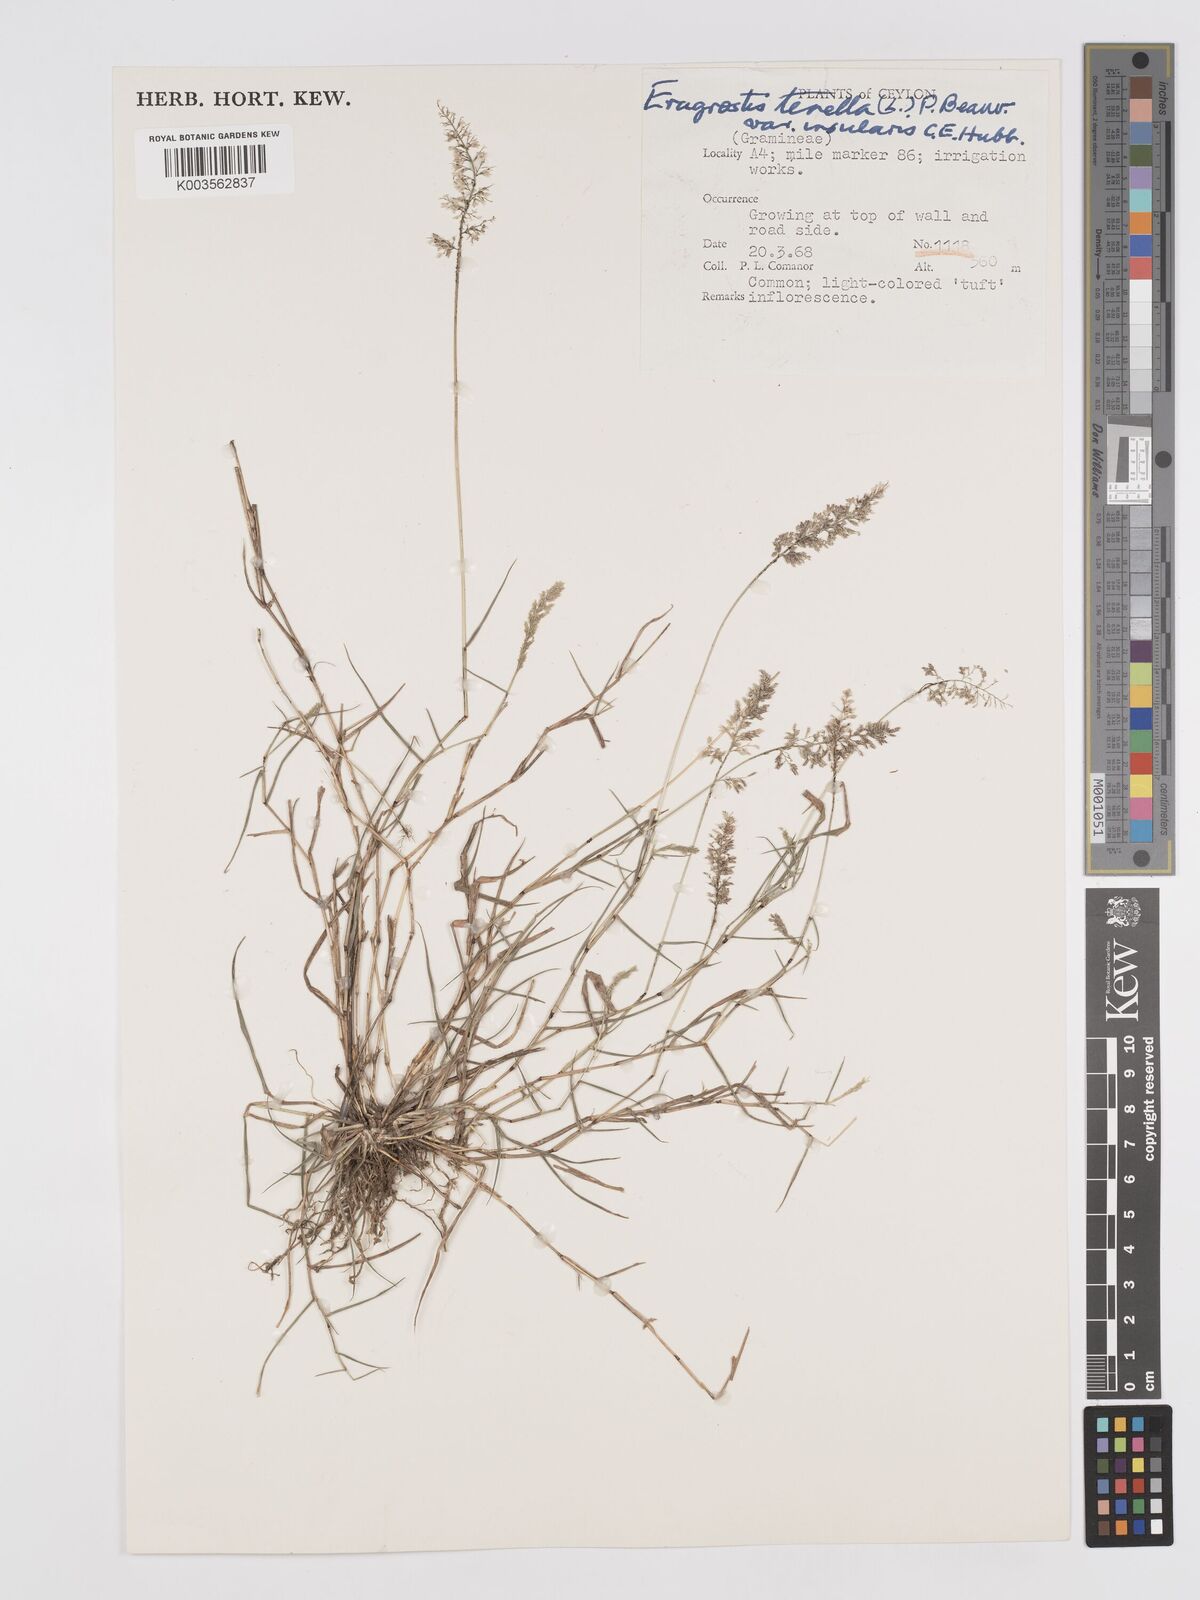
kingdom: Plantae
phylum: Tracheophyta
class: Liliopsida
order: Poales
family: Poaceae
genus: Eragrostis
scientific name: Eragrostis viscosa
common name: Sticky love grass
